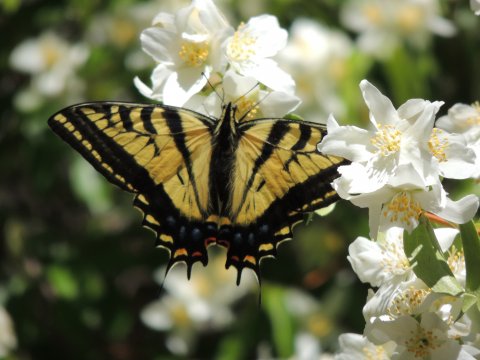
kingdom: Animalia
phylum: Arthropoda
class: Insecta
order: Lepidoptera
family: Papilionidae
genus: Papilio
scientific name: Papilio multicaudata
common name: Two-tailed Swallowtail
